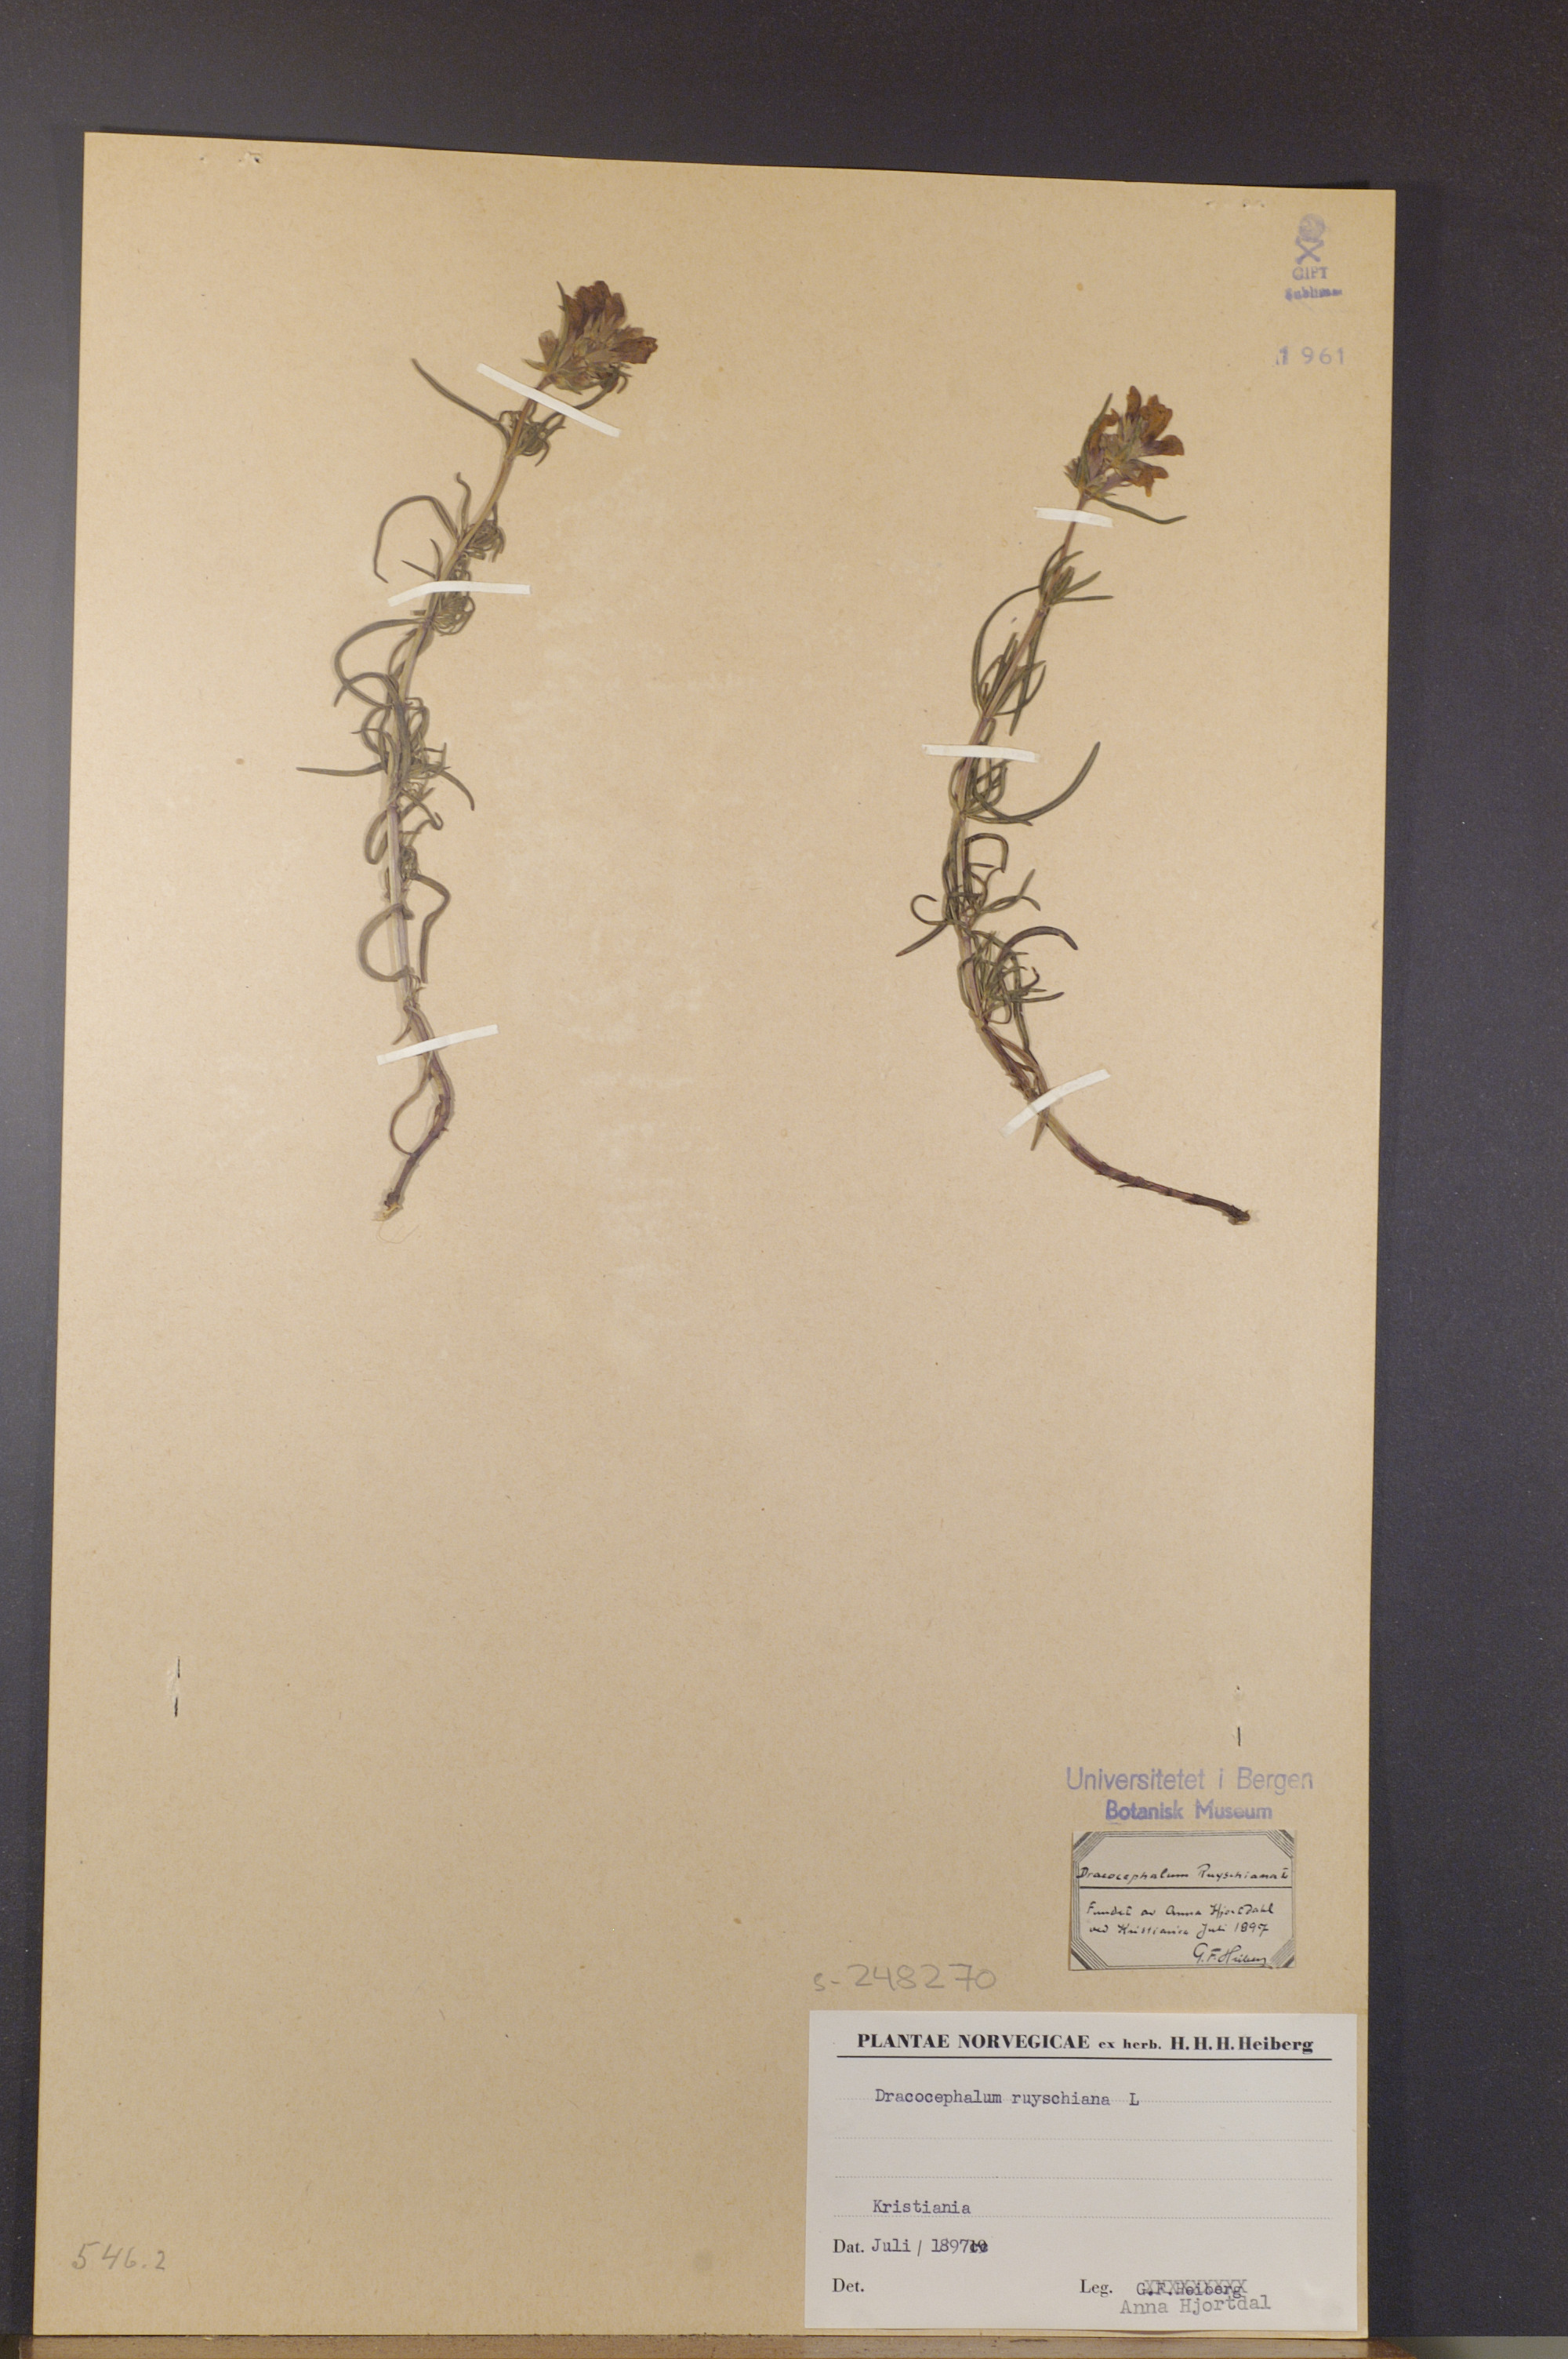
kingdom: Plantae
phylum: Tracheophyta
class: Magnoliopsida
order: Lamiales
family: Lamiaceae
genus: Dracocephalum
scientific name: Dracocephalum ruyschiana
